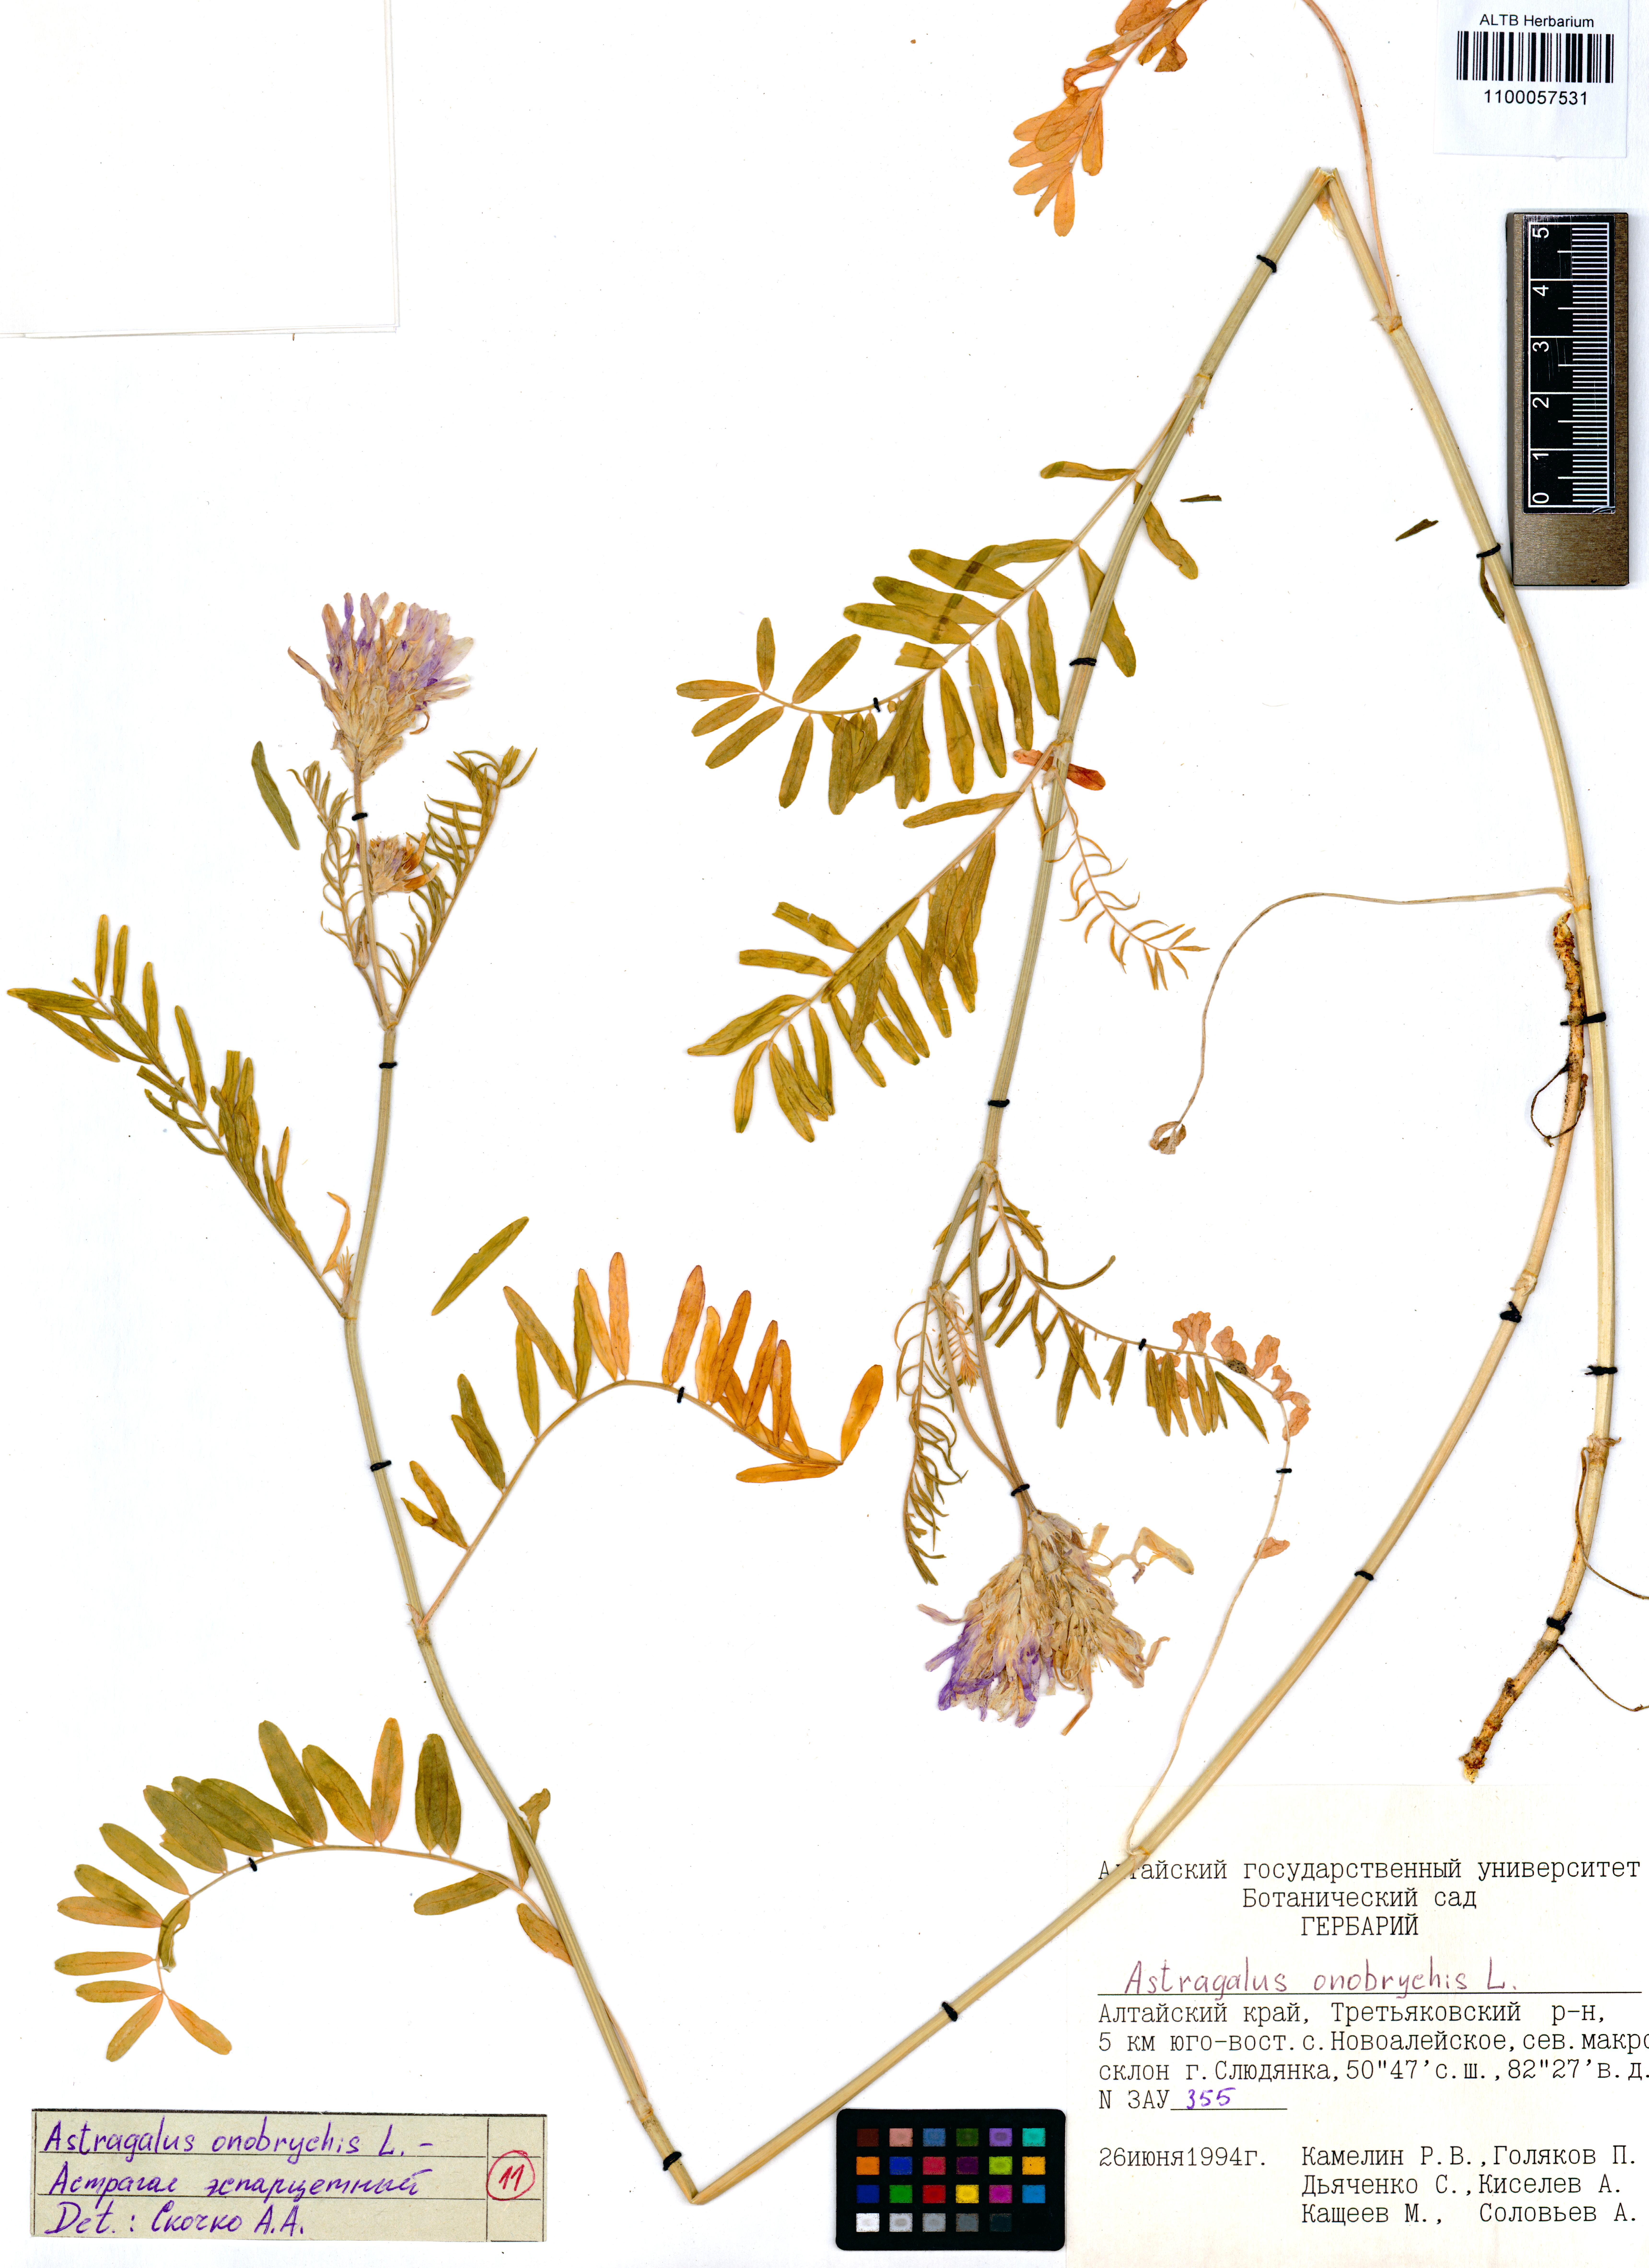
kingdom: Plantae
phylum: Tracheophyta
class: Magnoliopsida
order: Fabales
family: Fabaceae
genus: Astragalus
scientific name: Astragalus onobrychis
